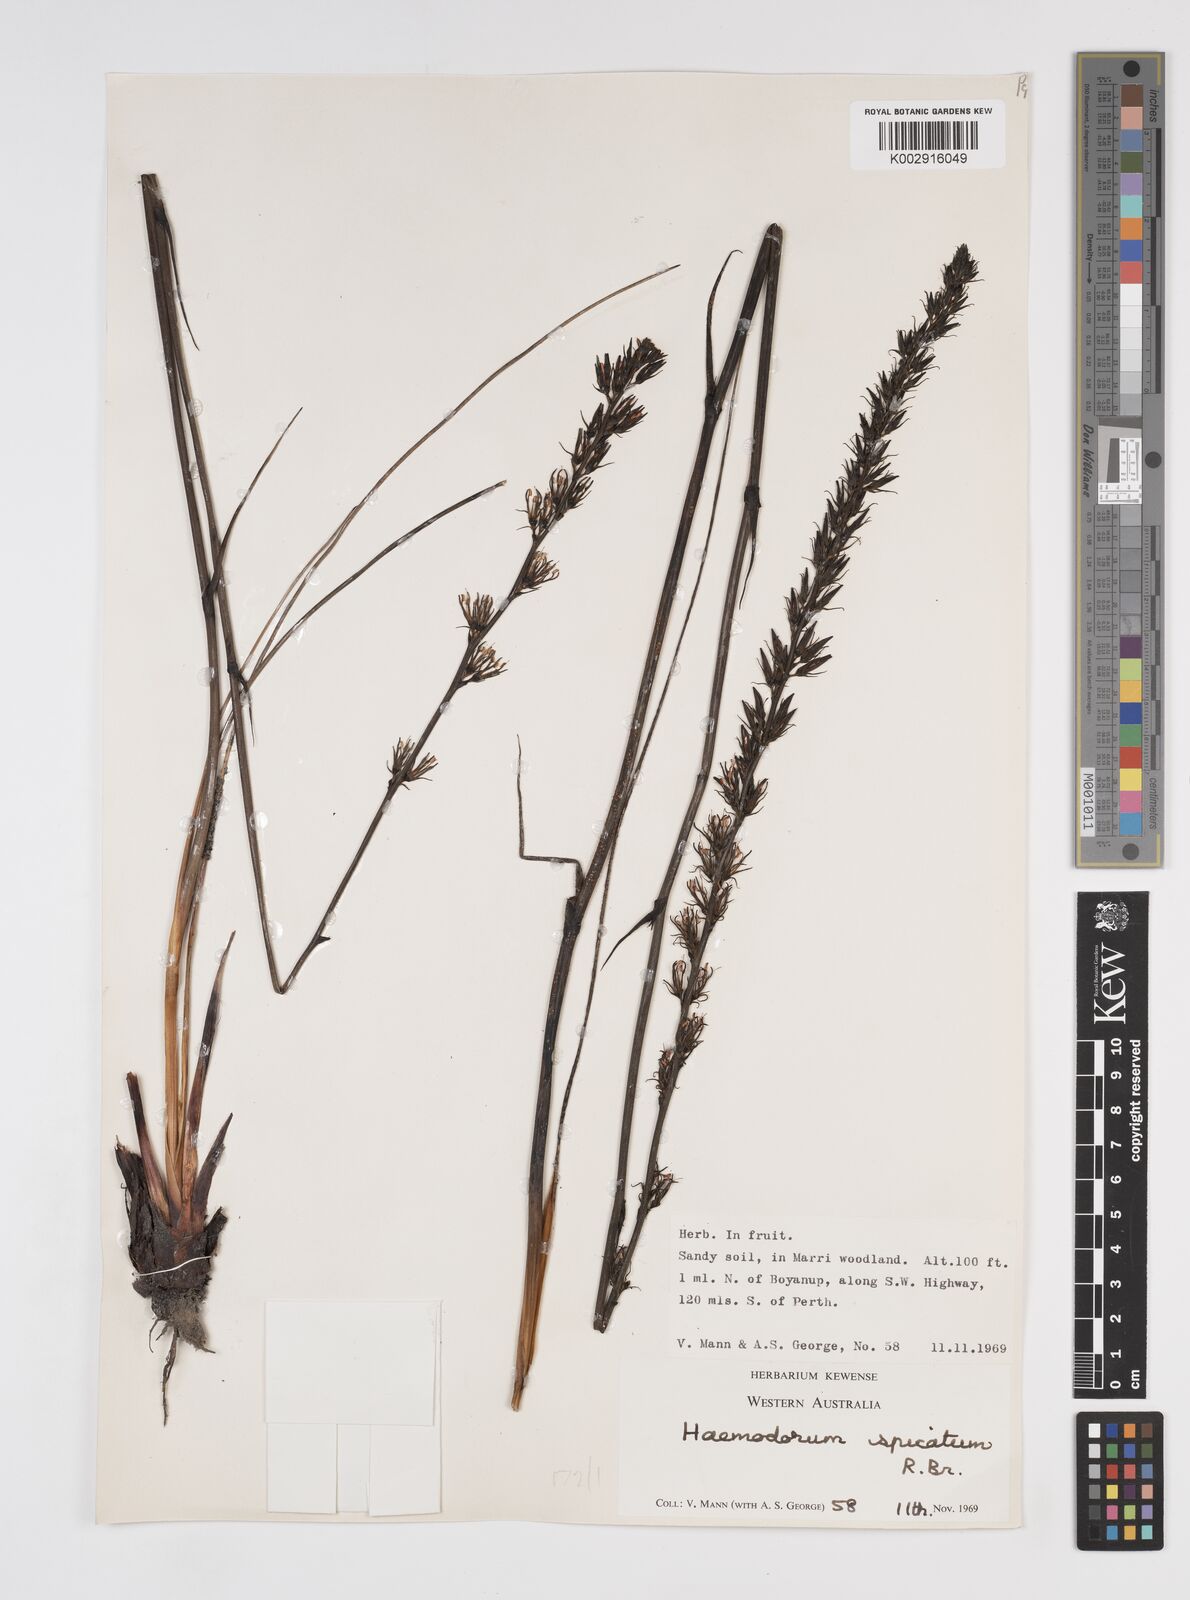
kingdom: Plantae
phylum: Tracheophyta
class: Liliopsida
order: Commelinales
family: Haemodoraceae
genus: Haemodorum
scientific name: Haemodorum spicatum
